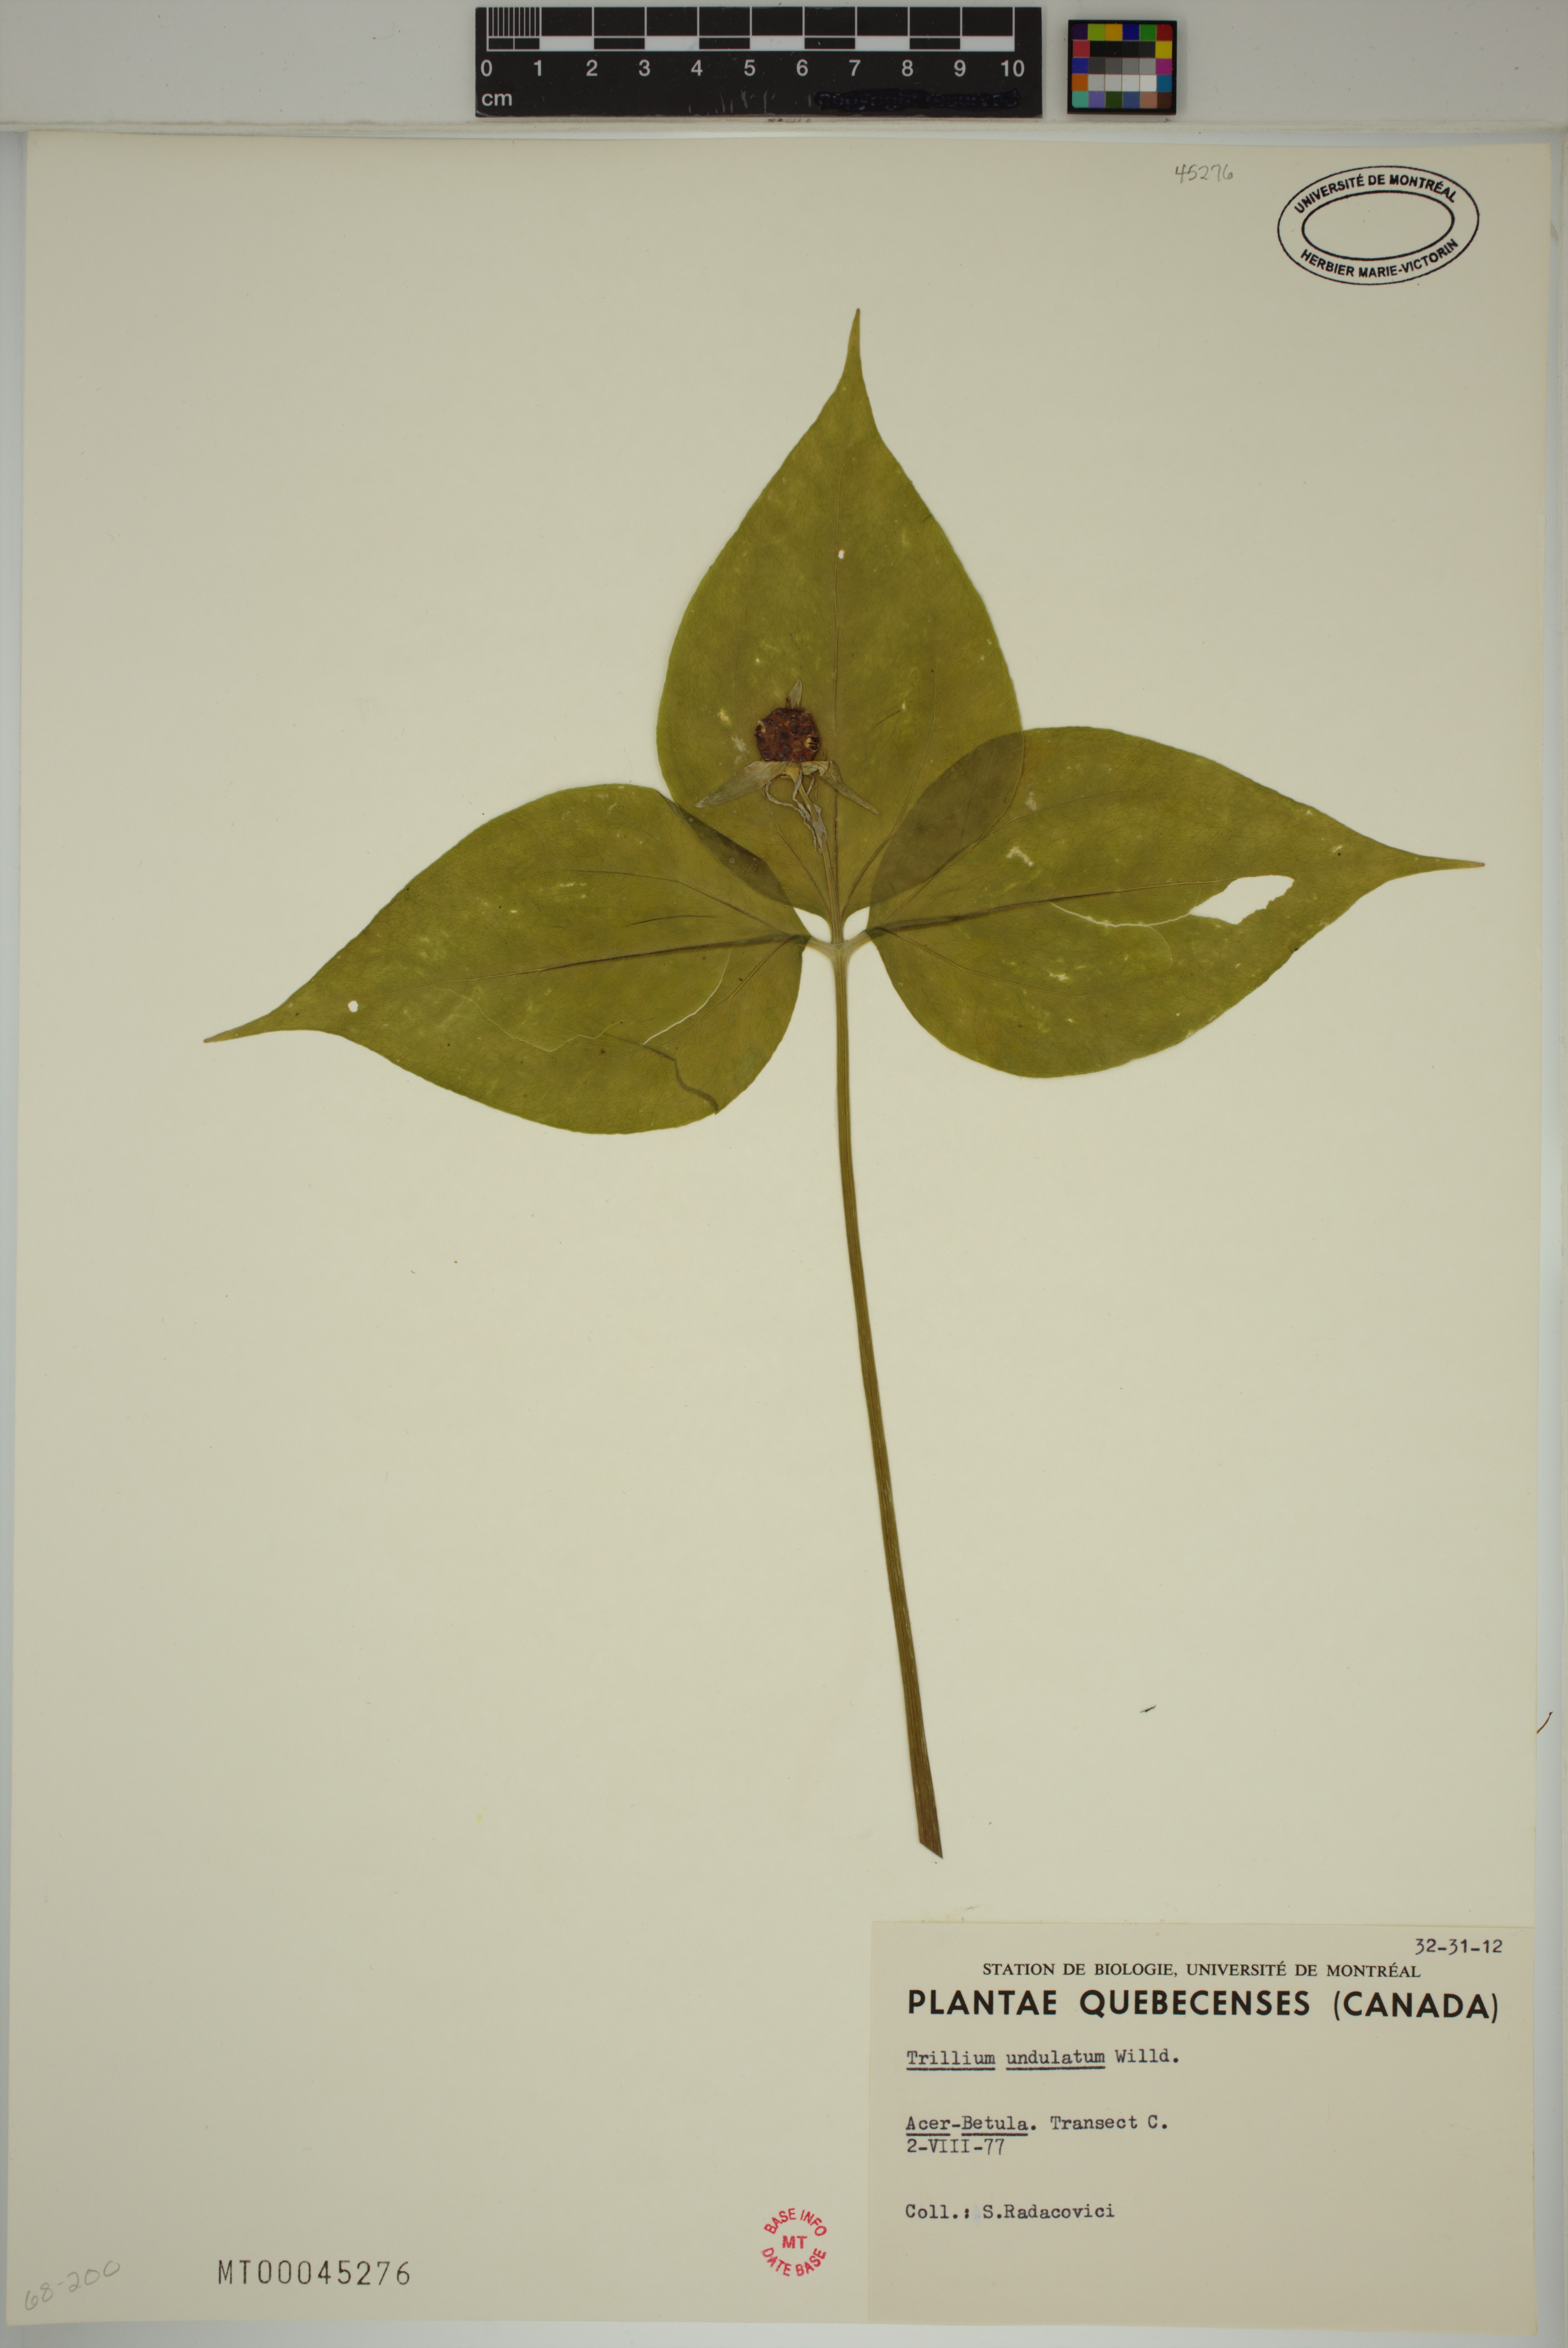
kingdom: Plantae
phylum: Tracheophyta
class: Liliopsida
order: Liliales
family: Melanthiaceae
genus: Trillium
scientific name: Trillium undulatum
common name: Paint trillium
